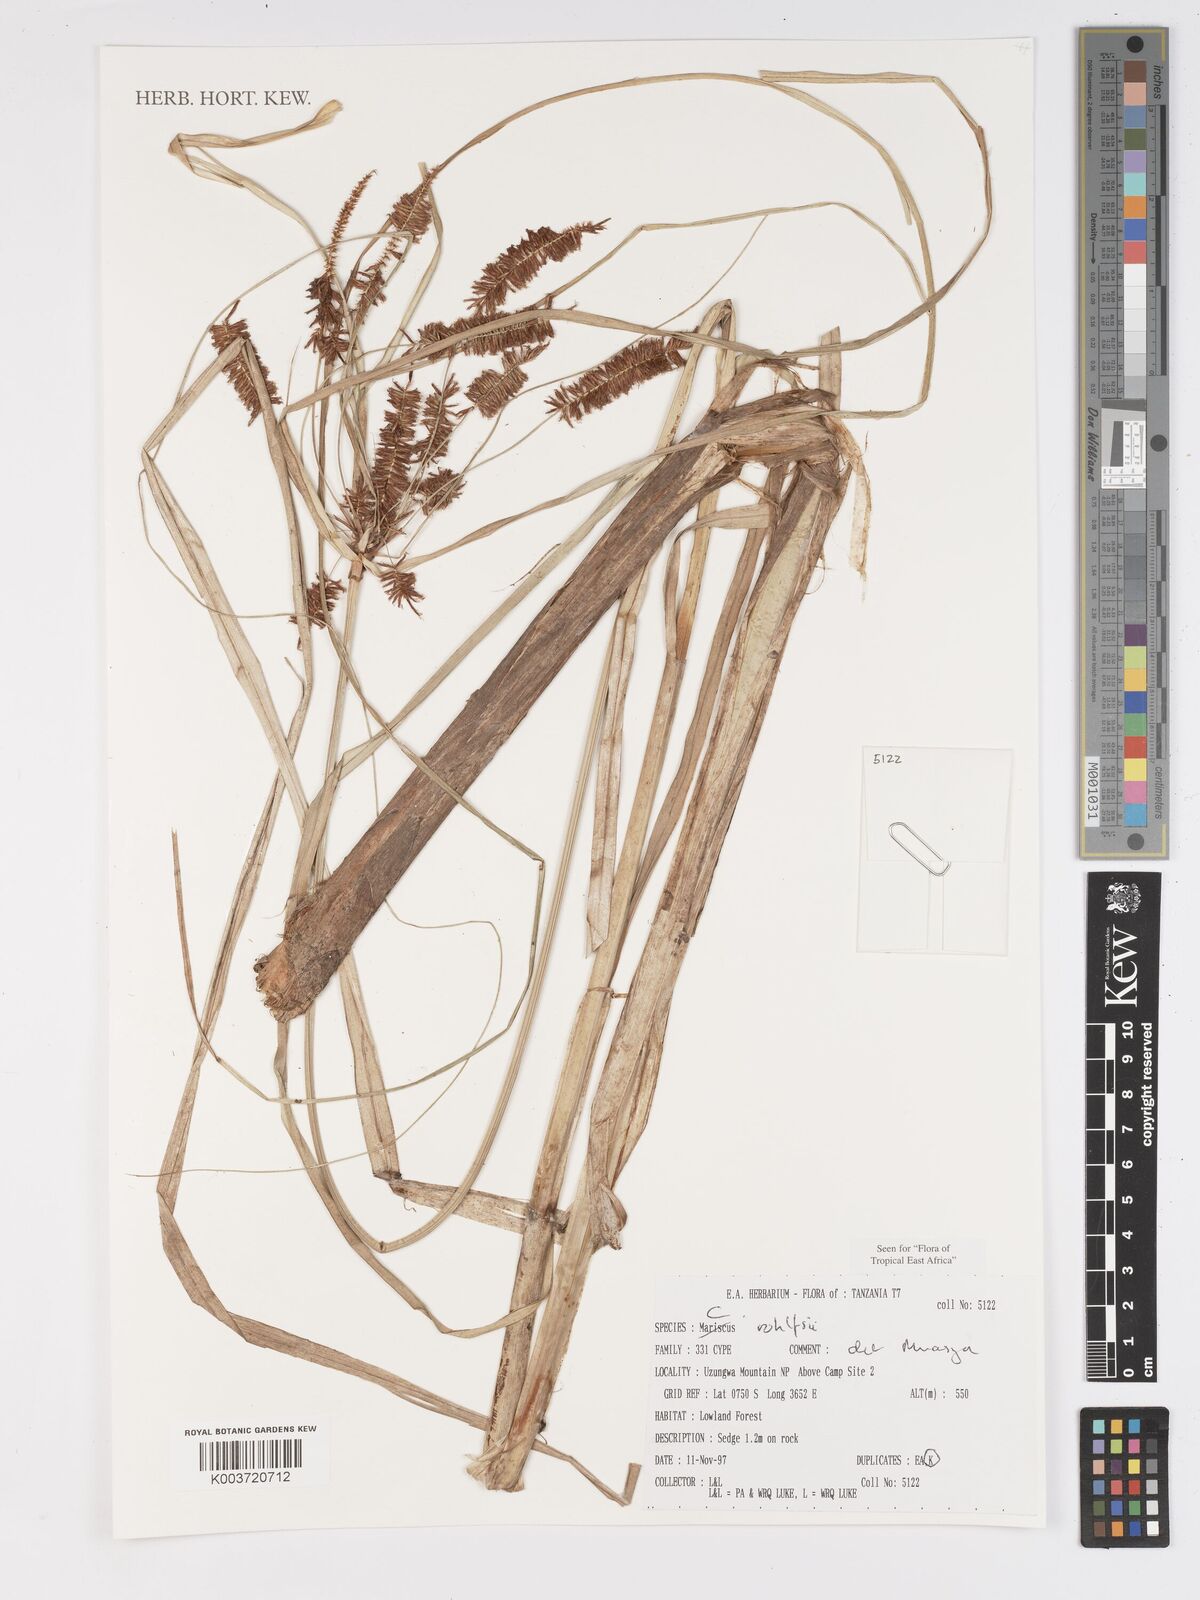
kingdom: Plantae
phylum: Tracheophyta
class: Liliopsida
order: Poales
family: Cyperaceae
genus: Cyperus
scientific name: Cyperus rohlfsii
